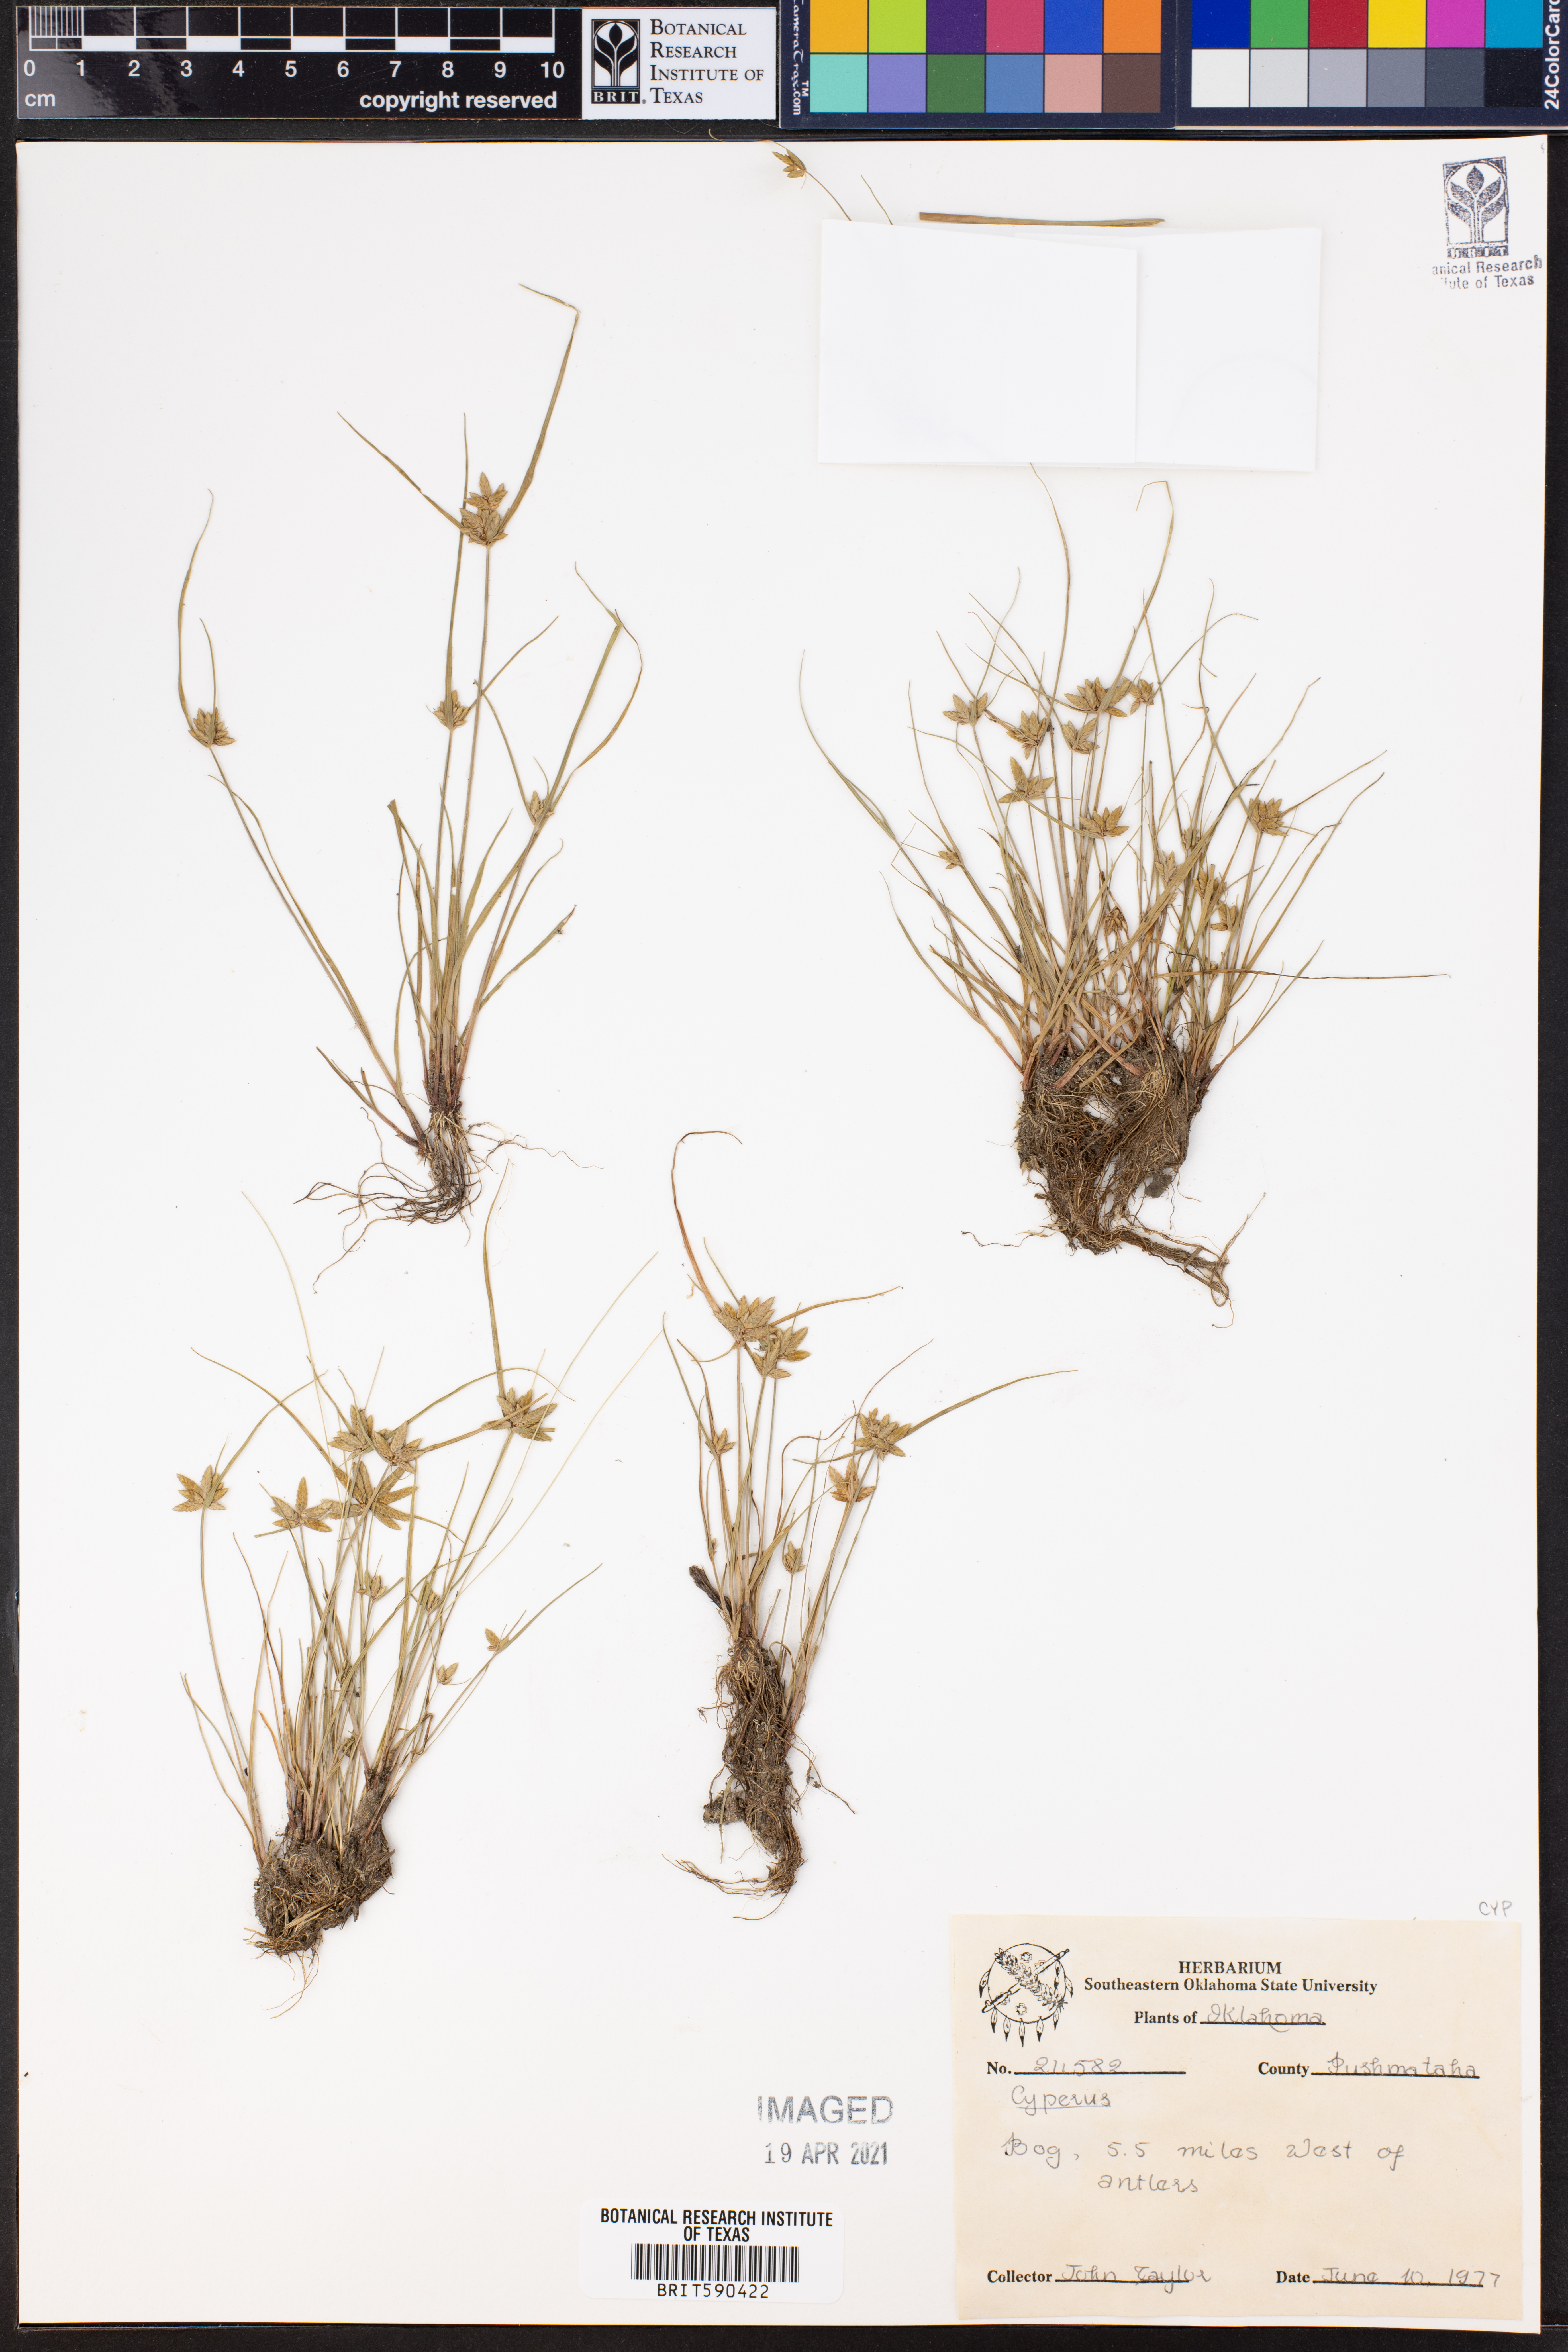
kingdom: Plantae
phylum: Tracheophyta
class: Liliopsida
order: Poales
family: Cyperaceae
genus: Cyperus
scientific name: Cyperus
